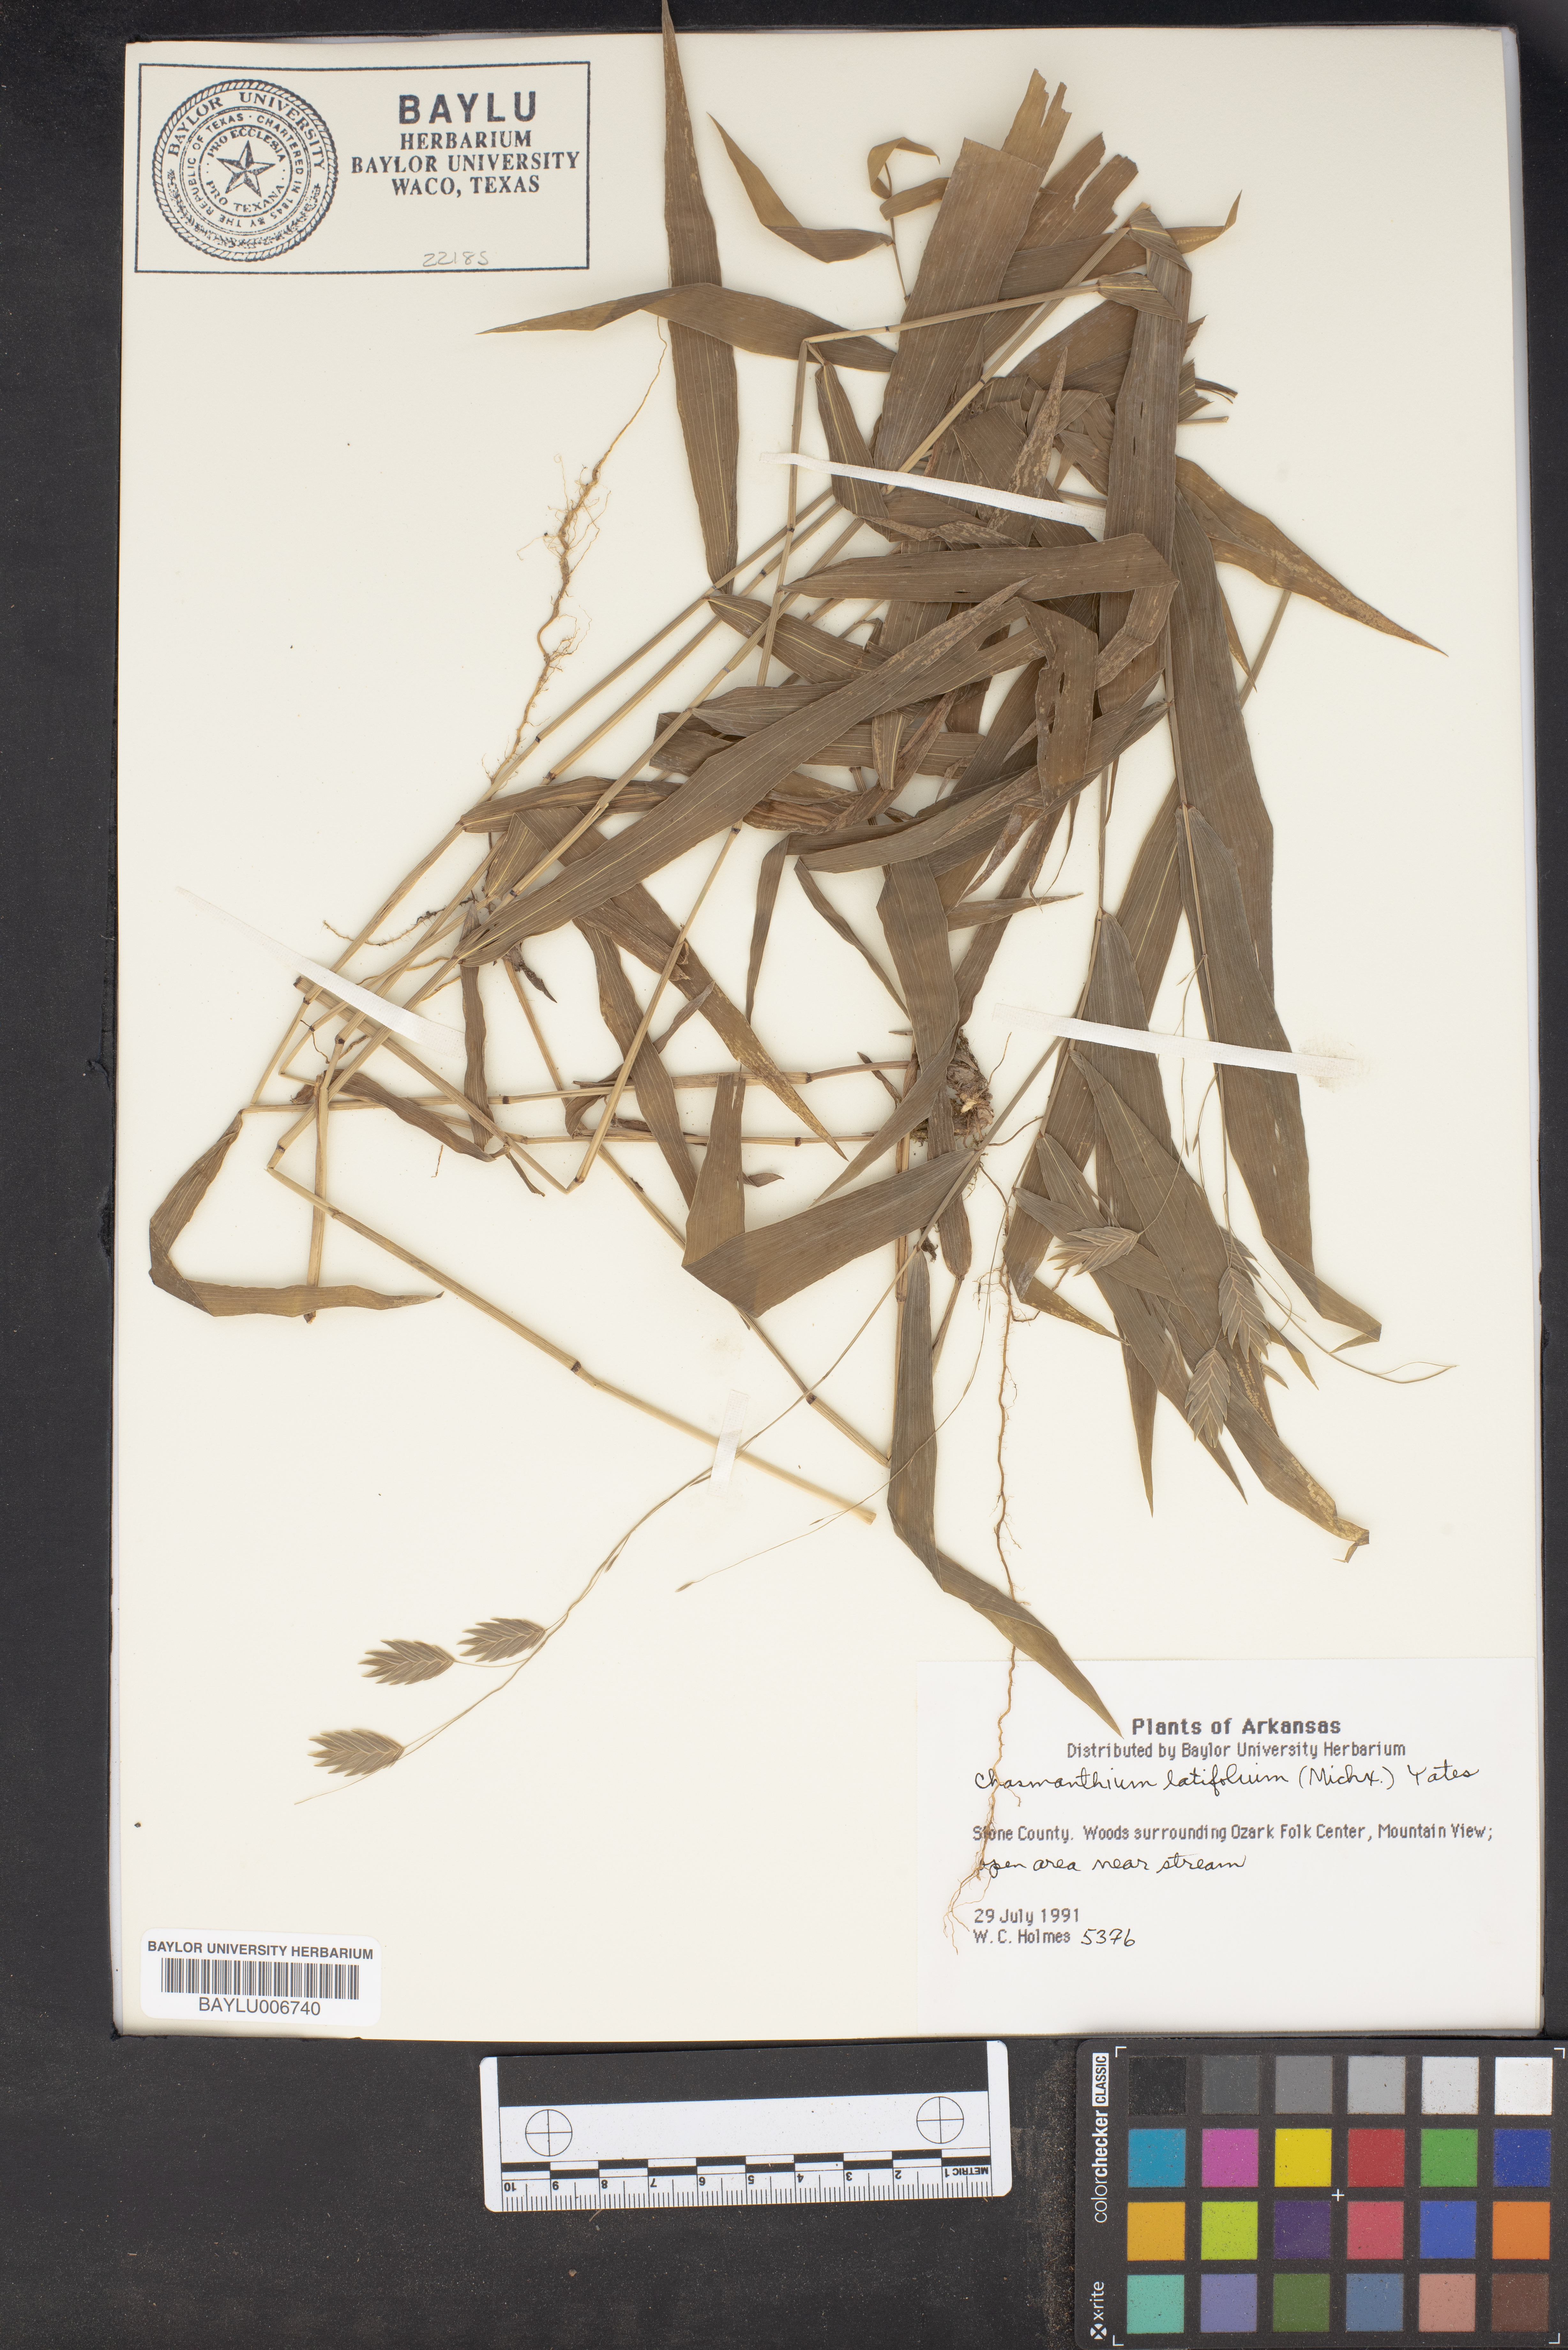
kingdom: Plantae
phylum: Tracheophyta
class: Liliopsida
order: Poales
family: Poaceae
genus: Chasmanthium
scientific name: Chasmanthium latifolium
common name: Broad-leaved chasmanthium
